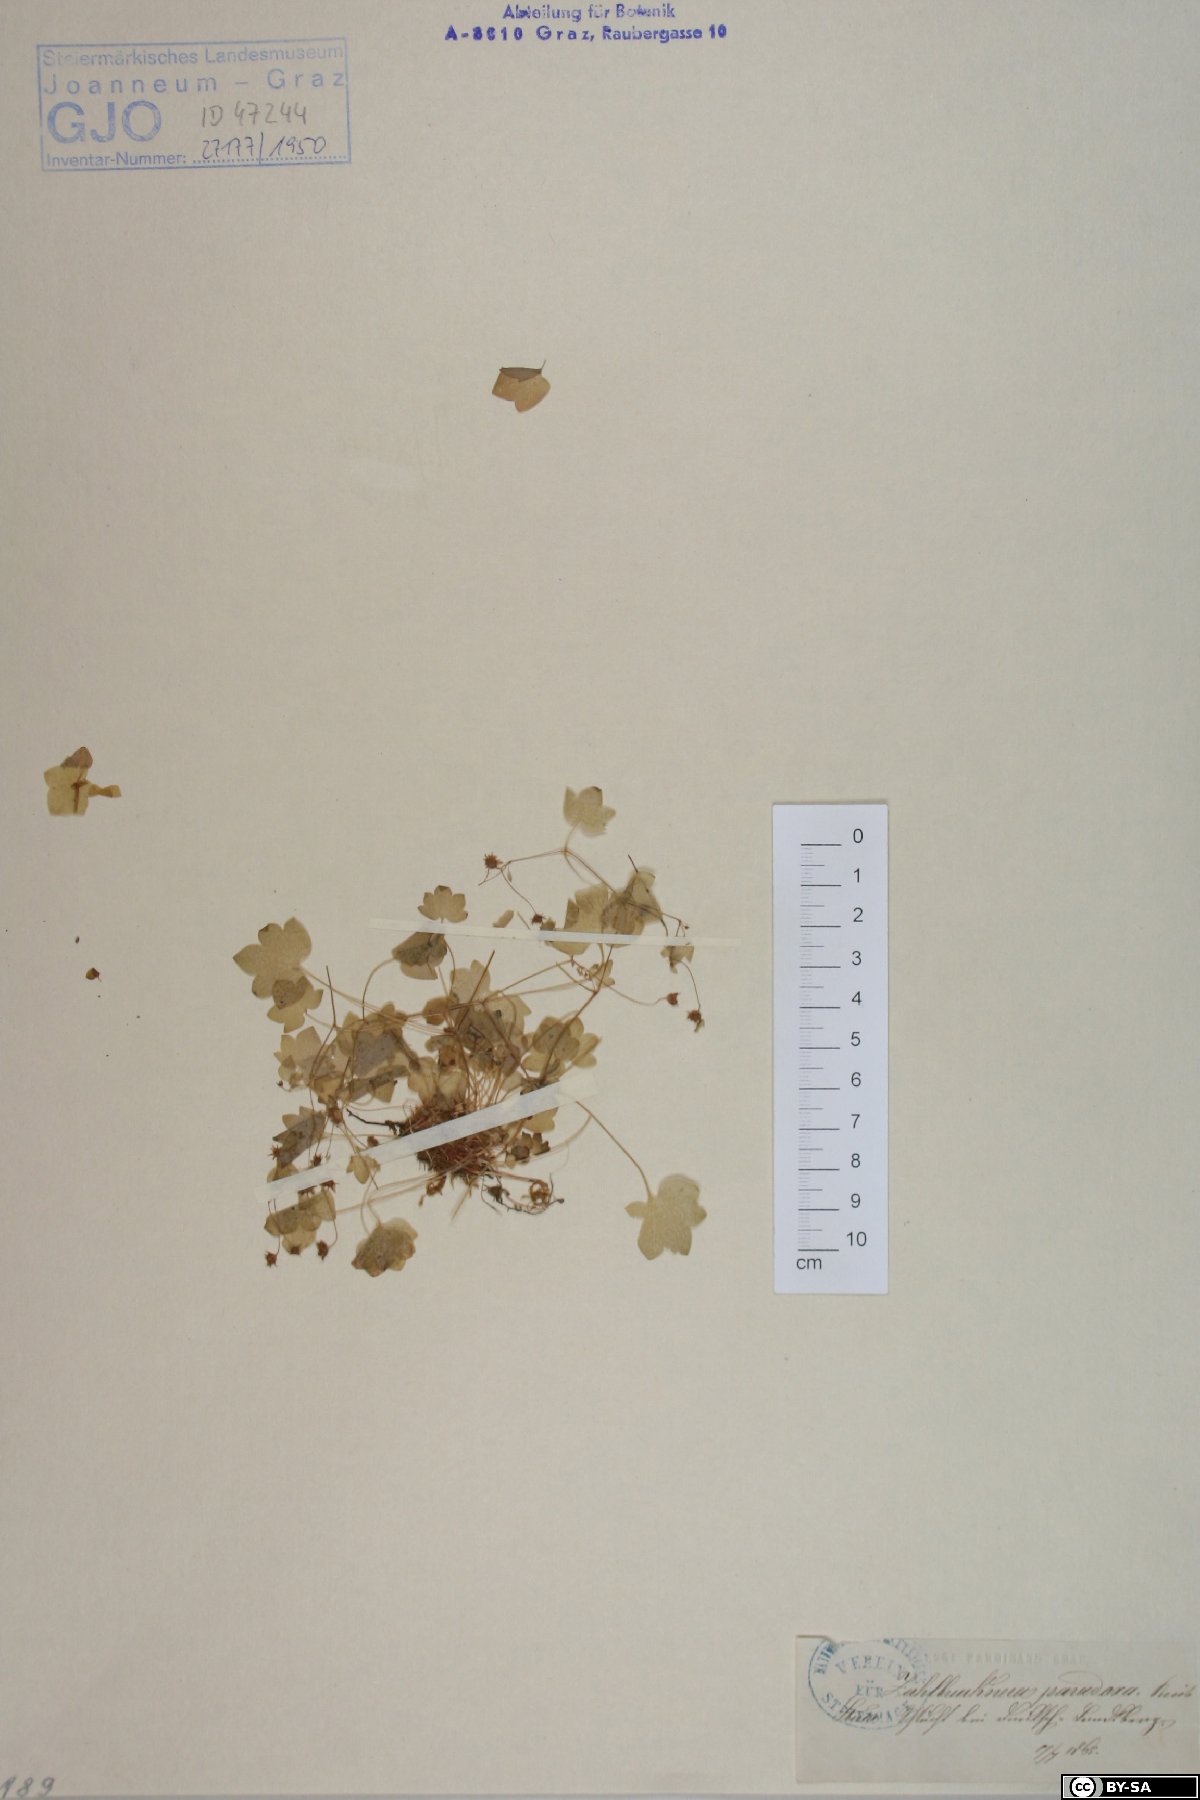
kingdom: Plantae
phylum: Tracheophyta
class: Magnoliopsida
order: Saxifragales
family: Saxifragaceae
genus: Saxifraga
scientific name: Saxifraga paradoxa
